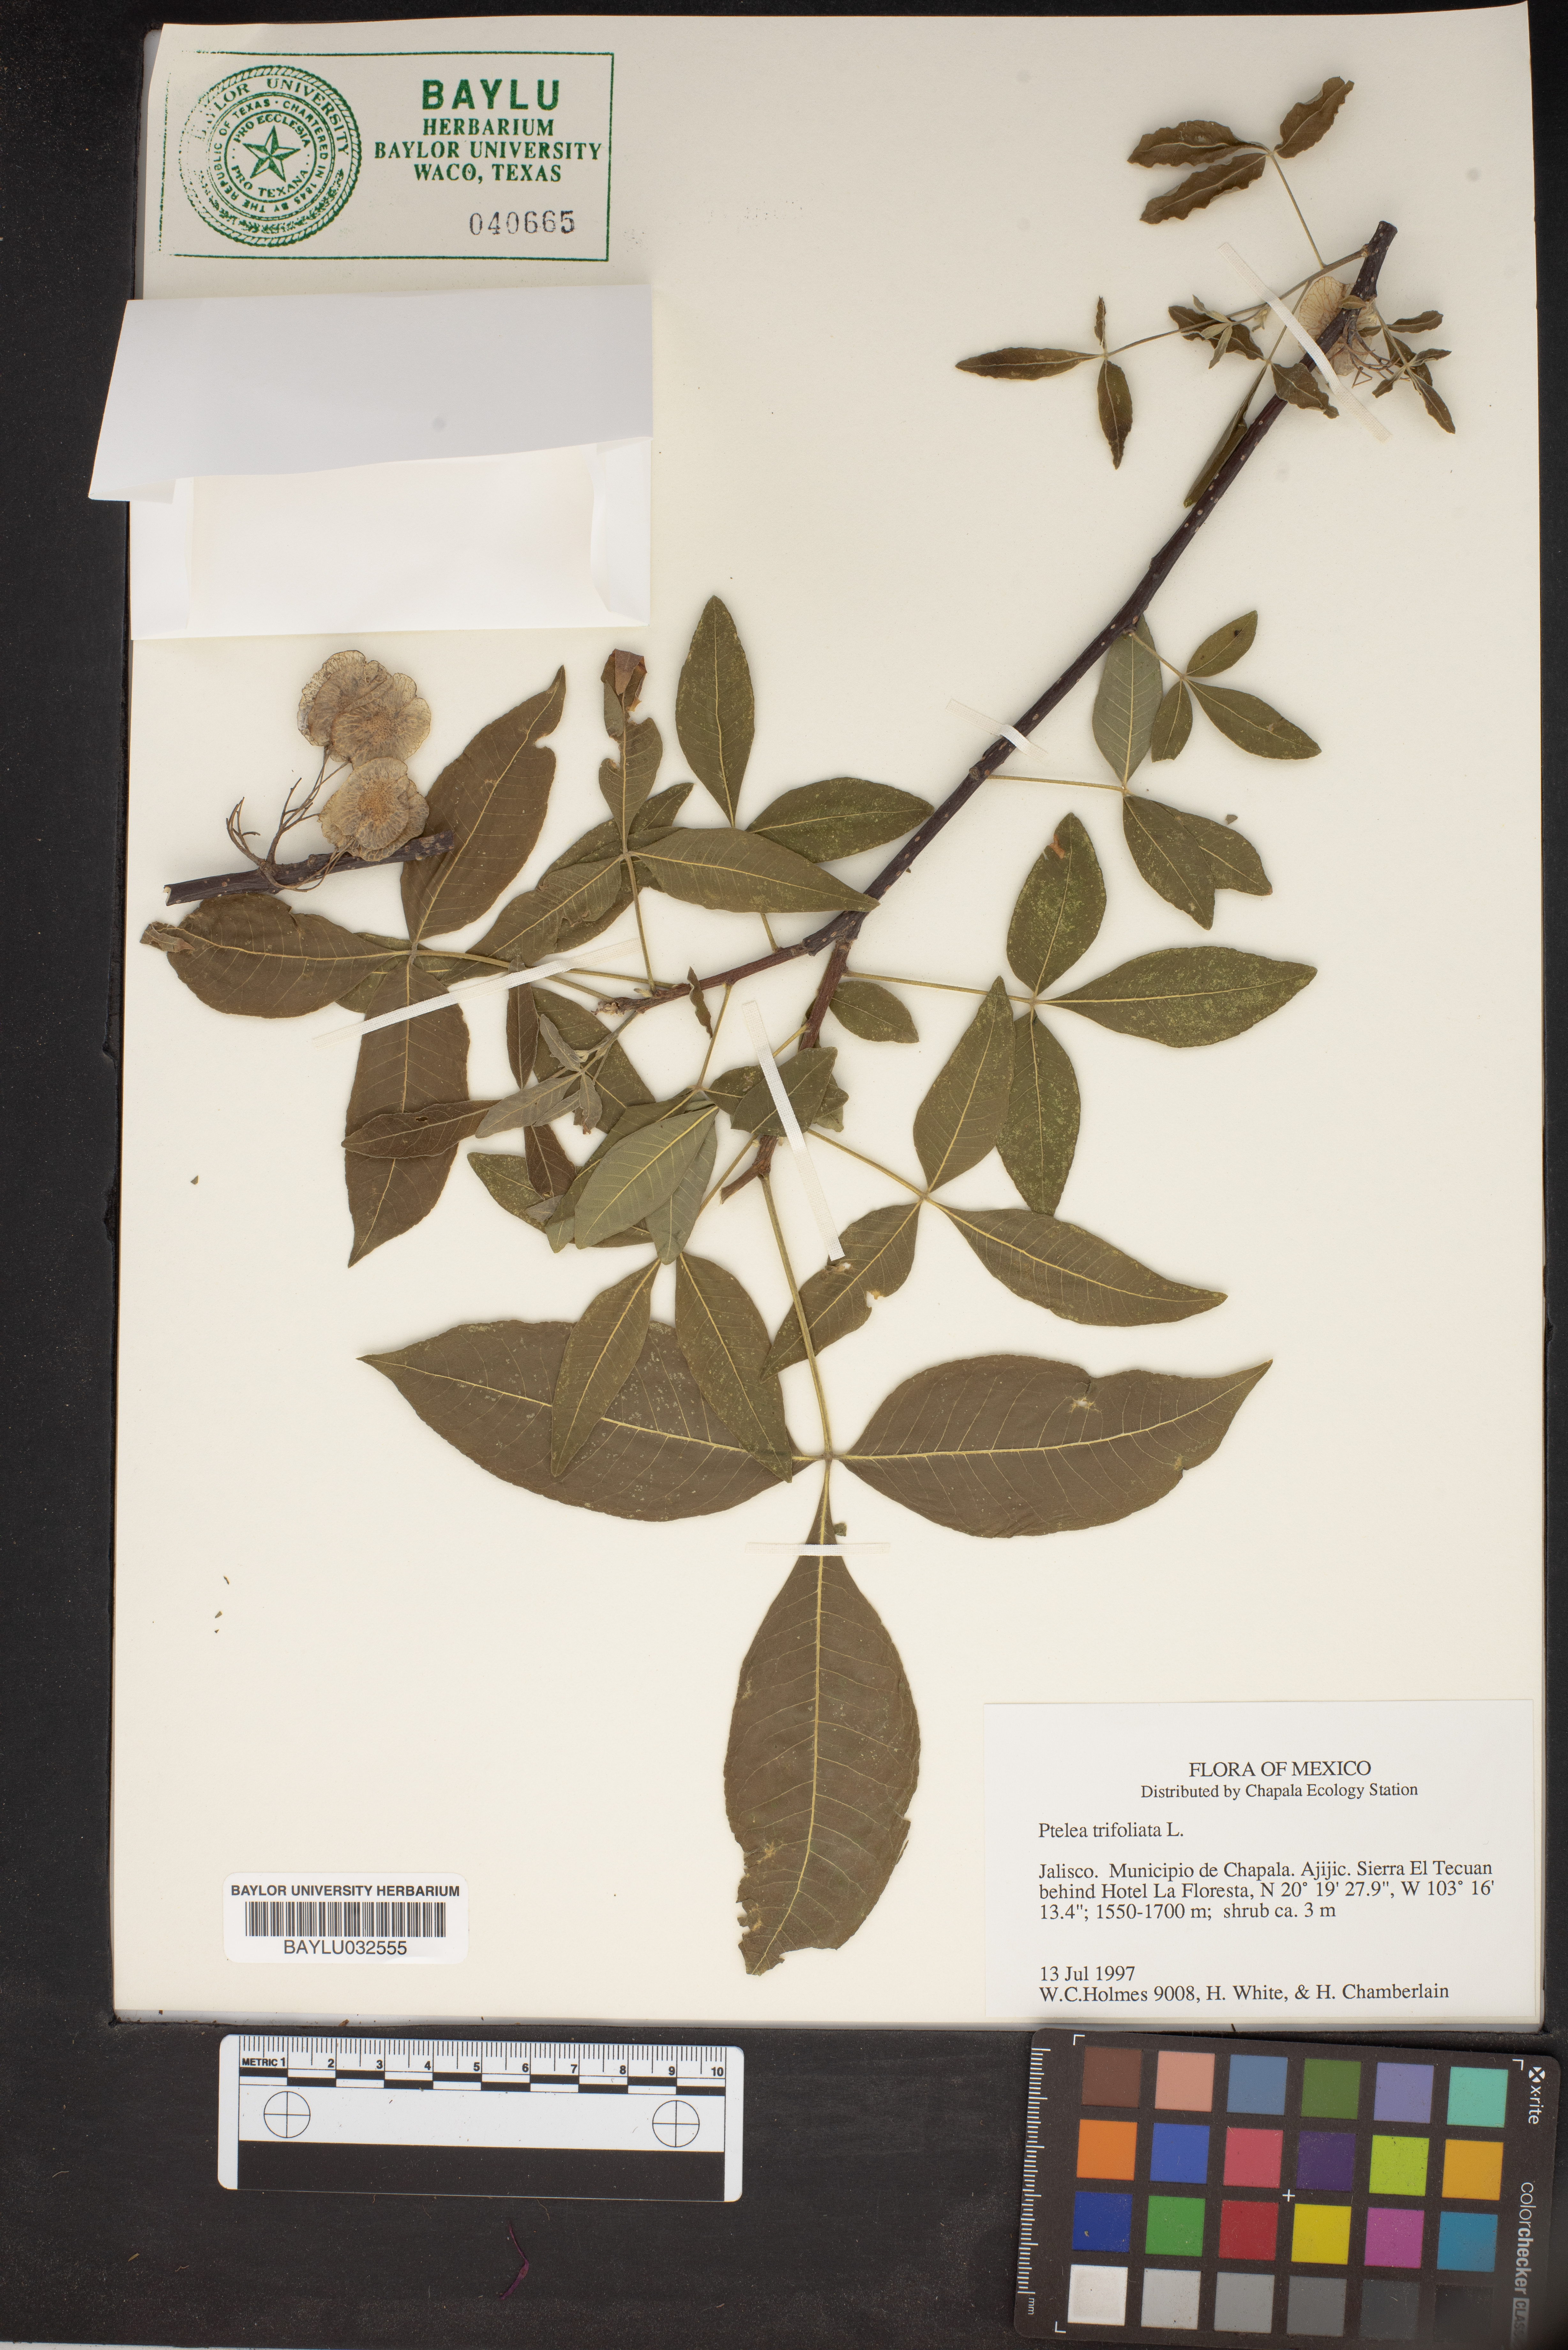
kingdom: Plantae
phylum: Tracheophyta
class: Magnoliopsida
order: Sapindales
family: Rutaceae
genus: Ptelea
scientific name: Ptelea trifoliata
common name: Common hop-tree
